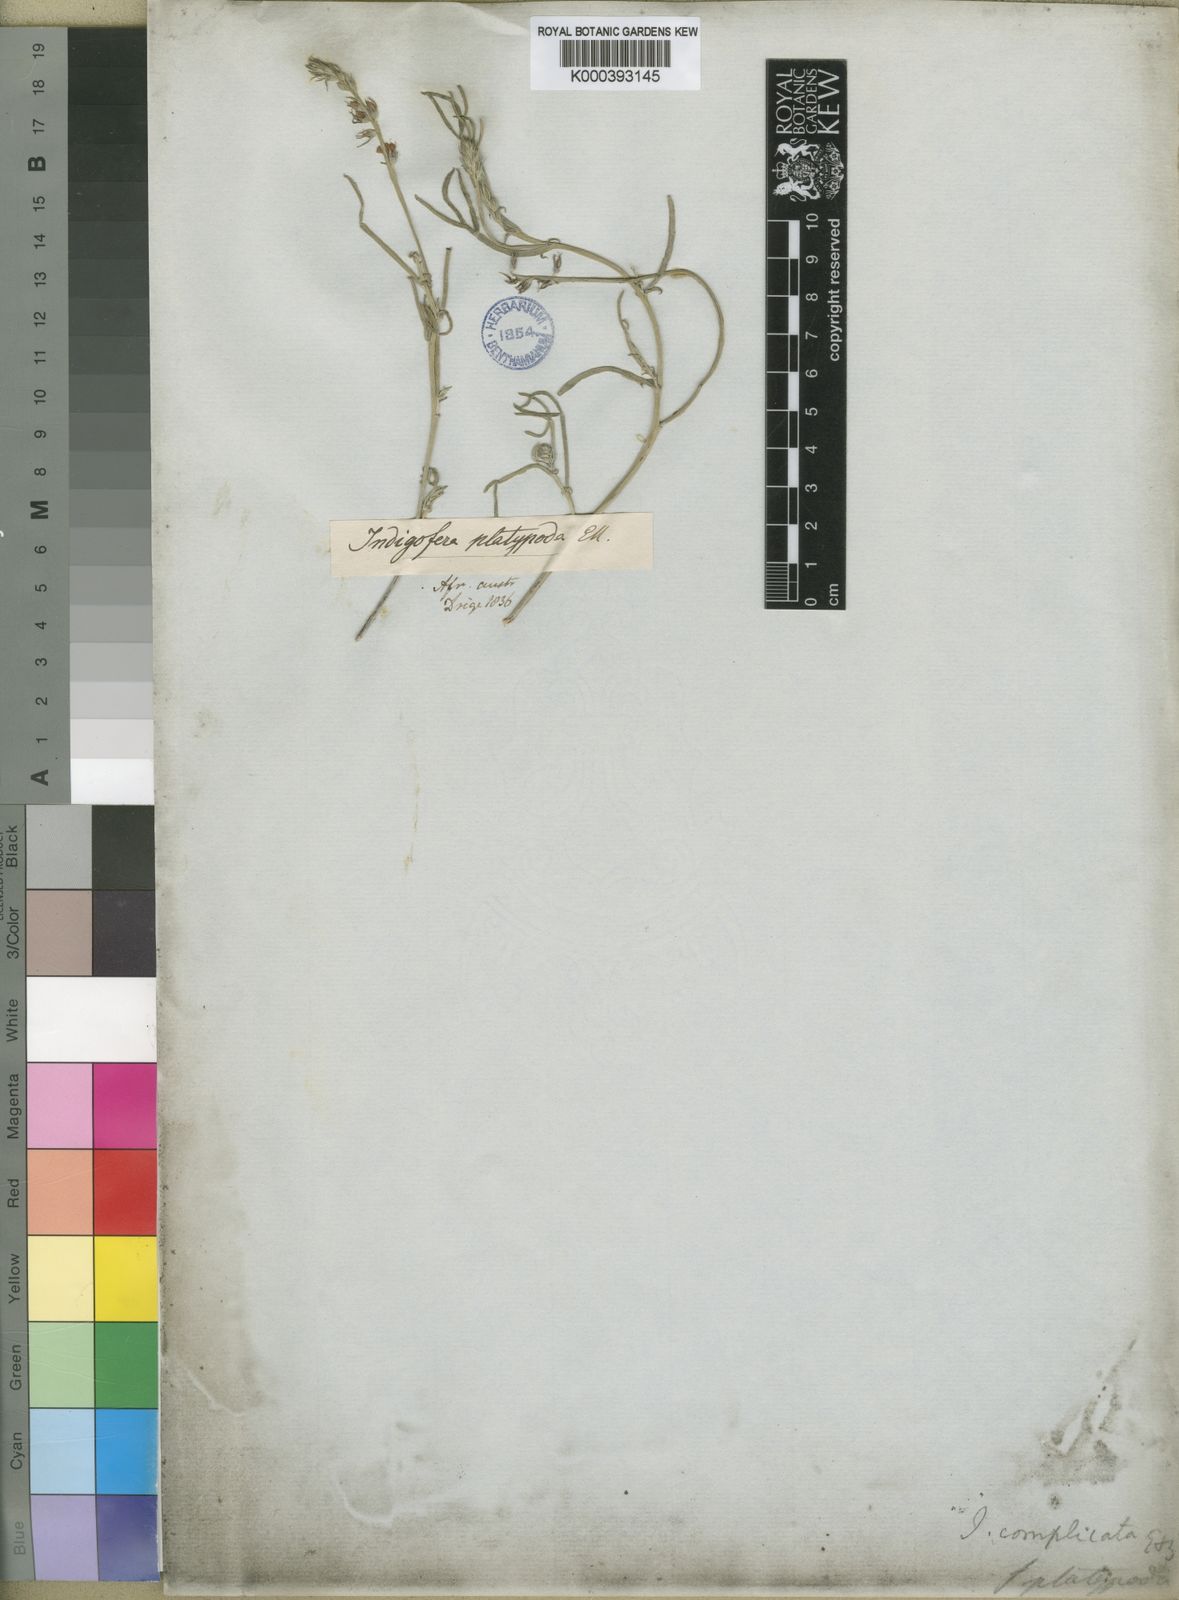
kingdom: Plantae
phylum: Tracheophyta
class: Magnoliopsida
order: Fabales
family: Fabaceae
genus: Indigofera
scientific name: Indigofera platypoda
